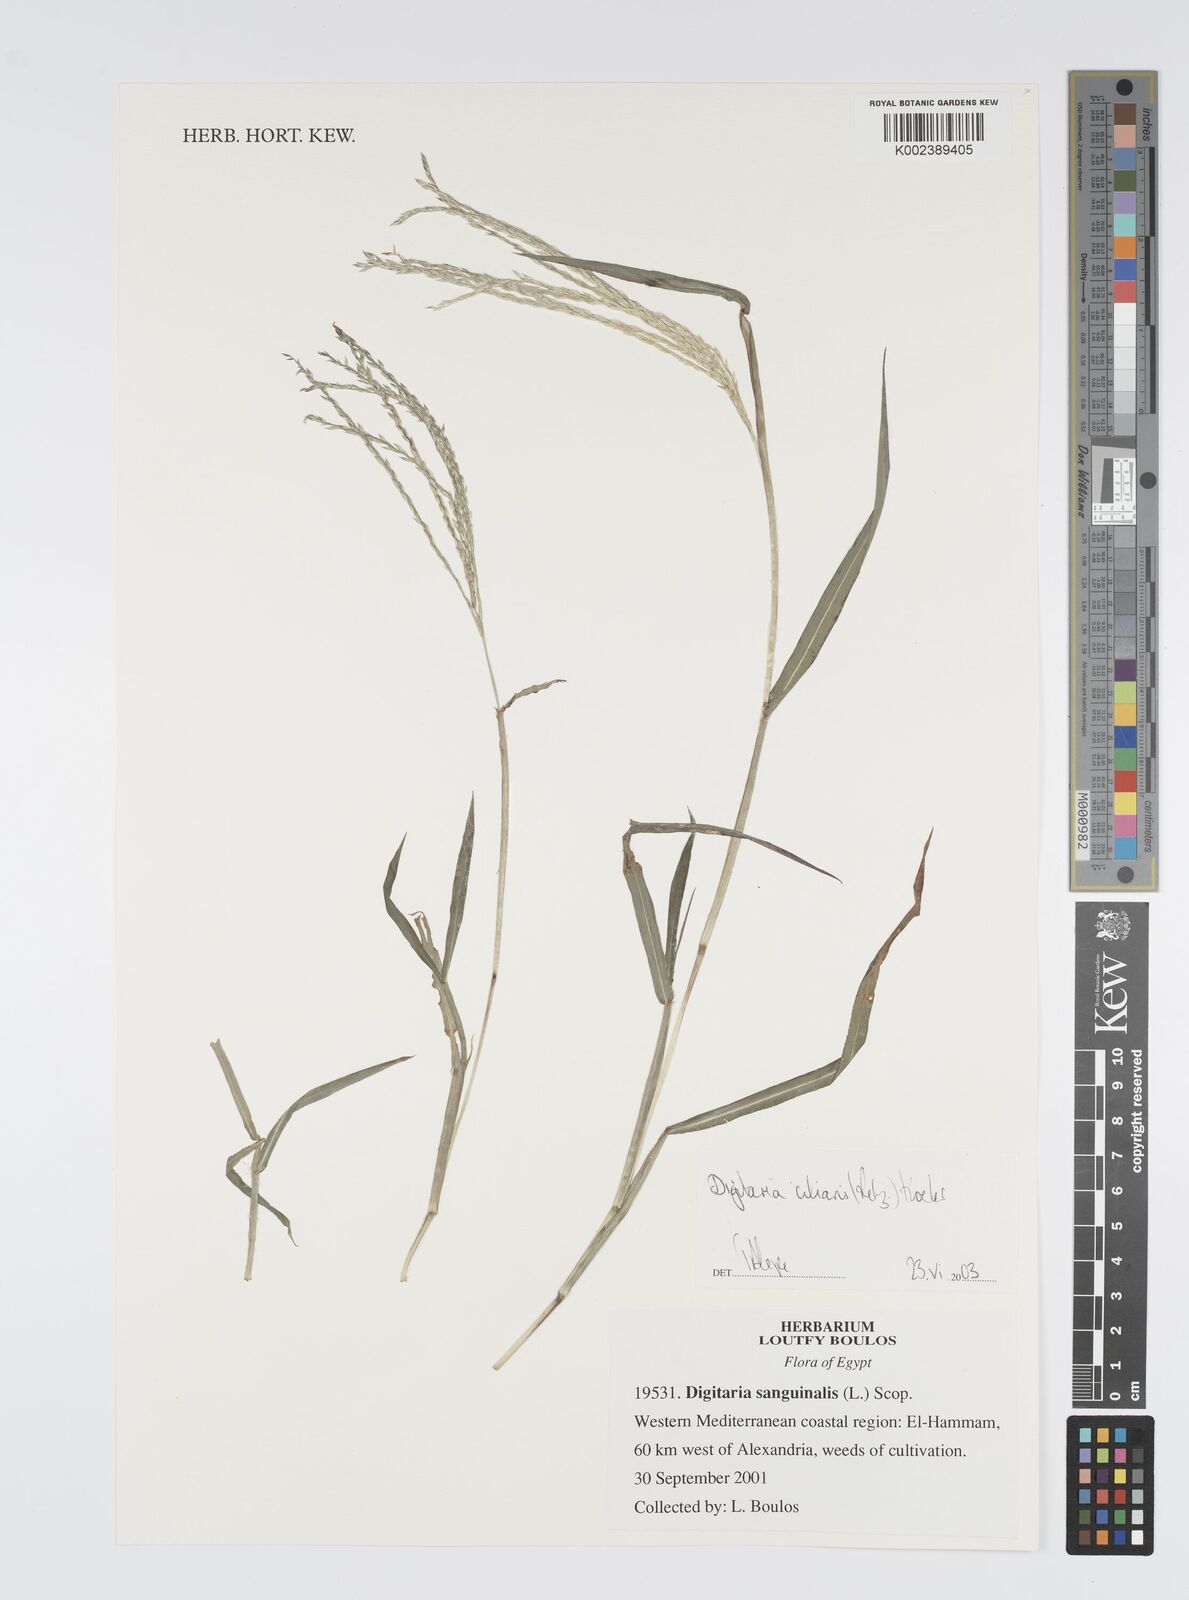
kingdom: Plantae
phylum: Tracheophyta
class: Liliopsida
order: Poales
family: Poaceae
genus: Digitaria
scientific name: Digitaria sanguinalis
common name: Hairy crabgrass
